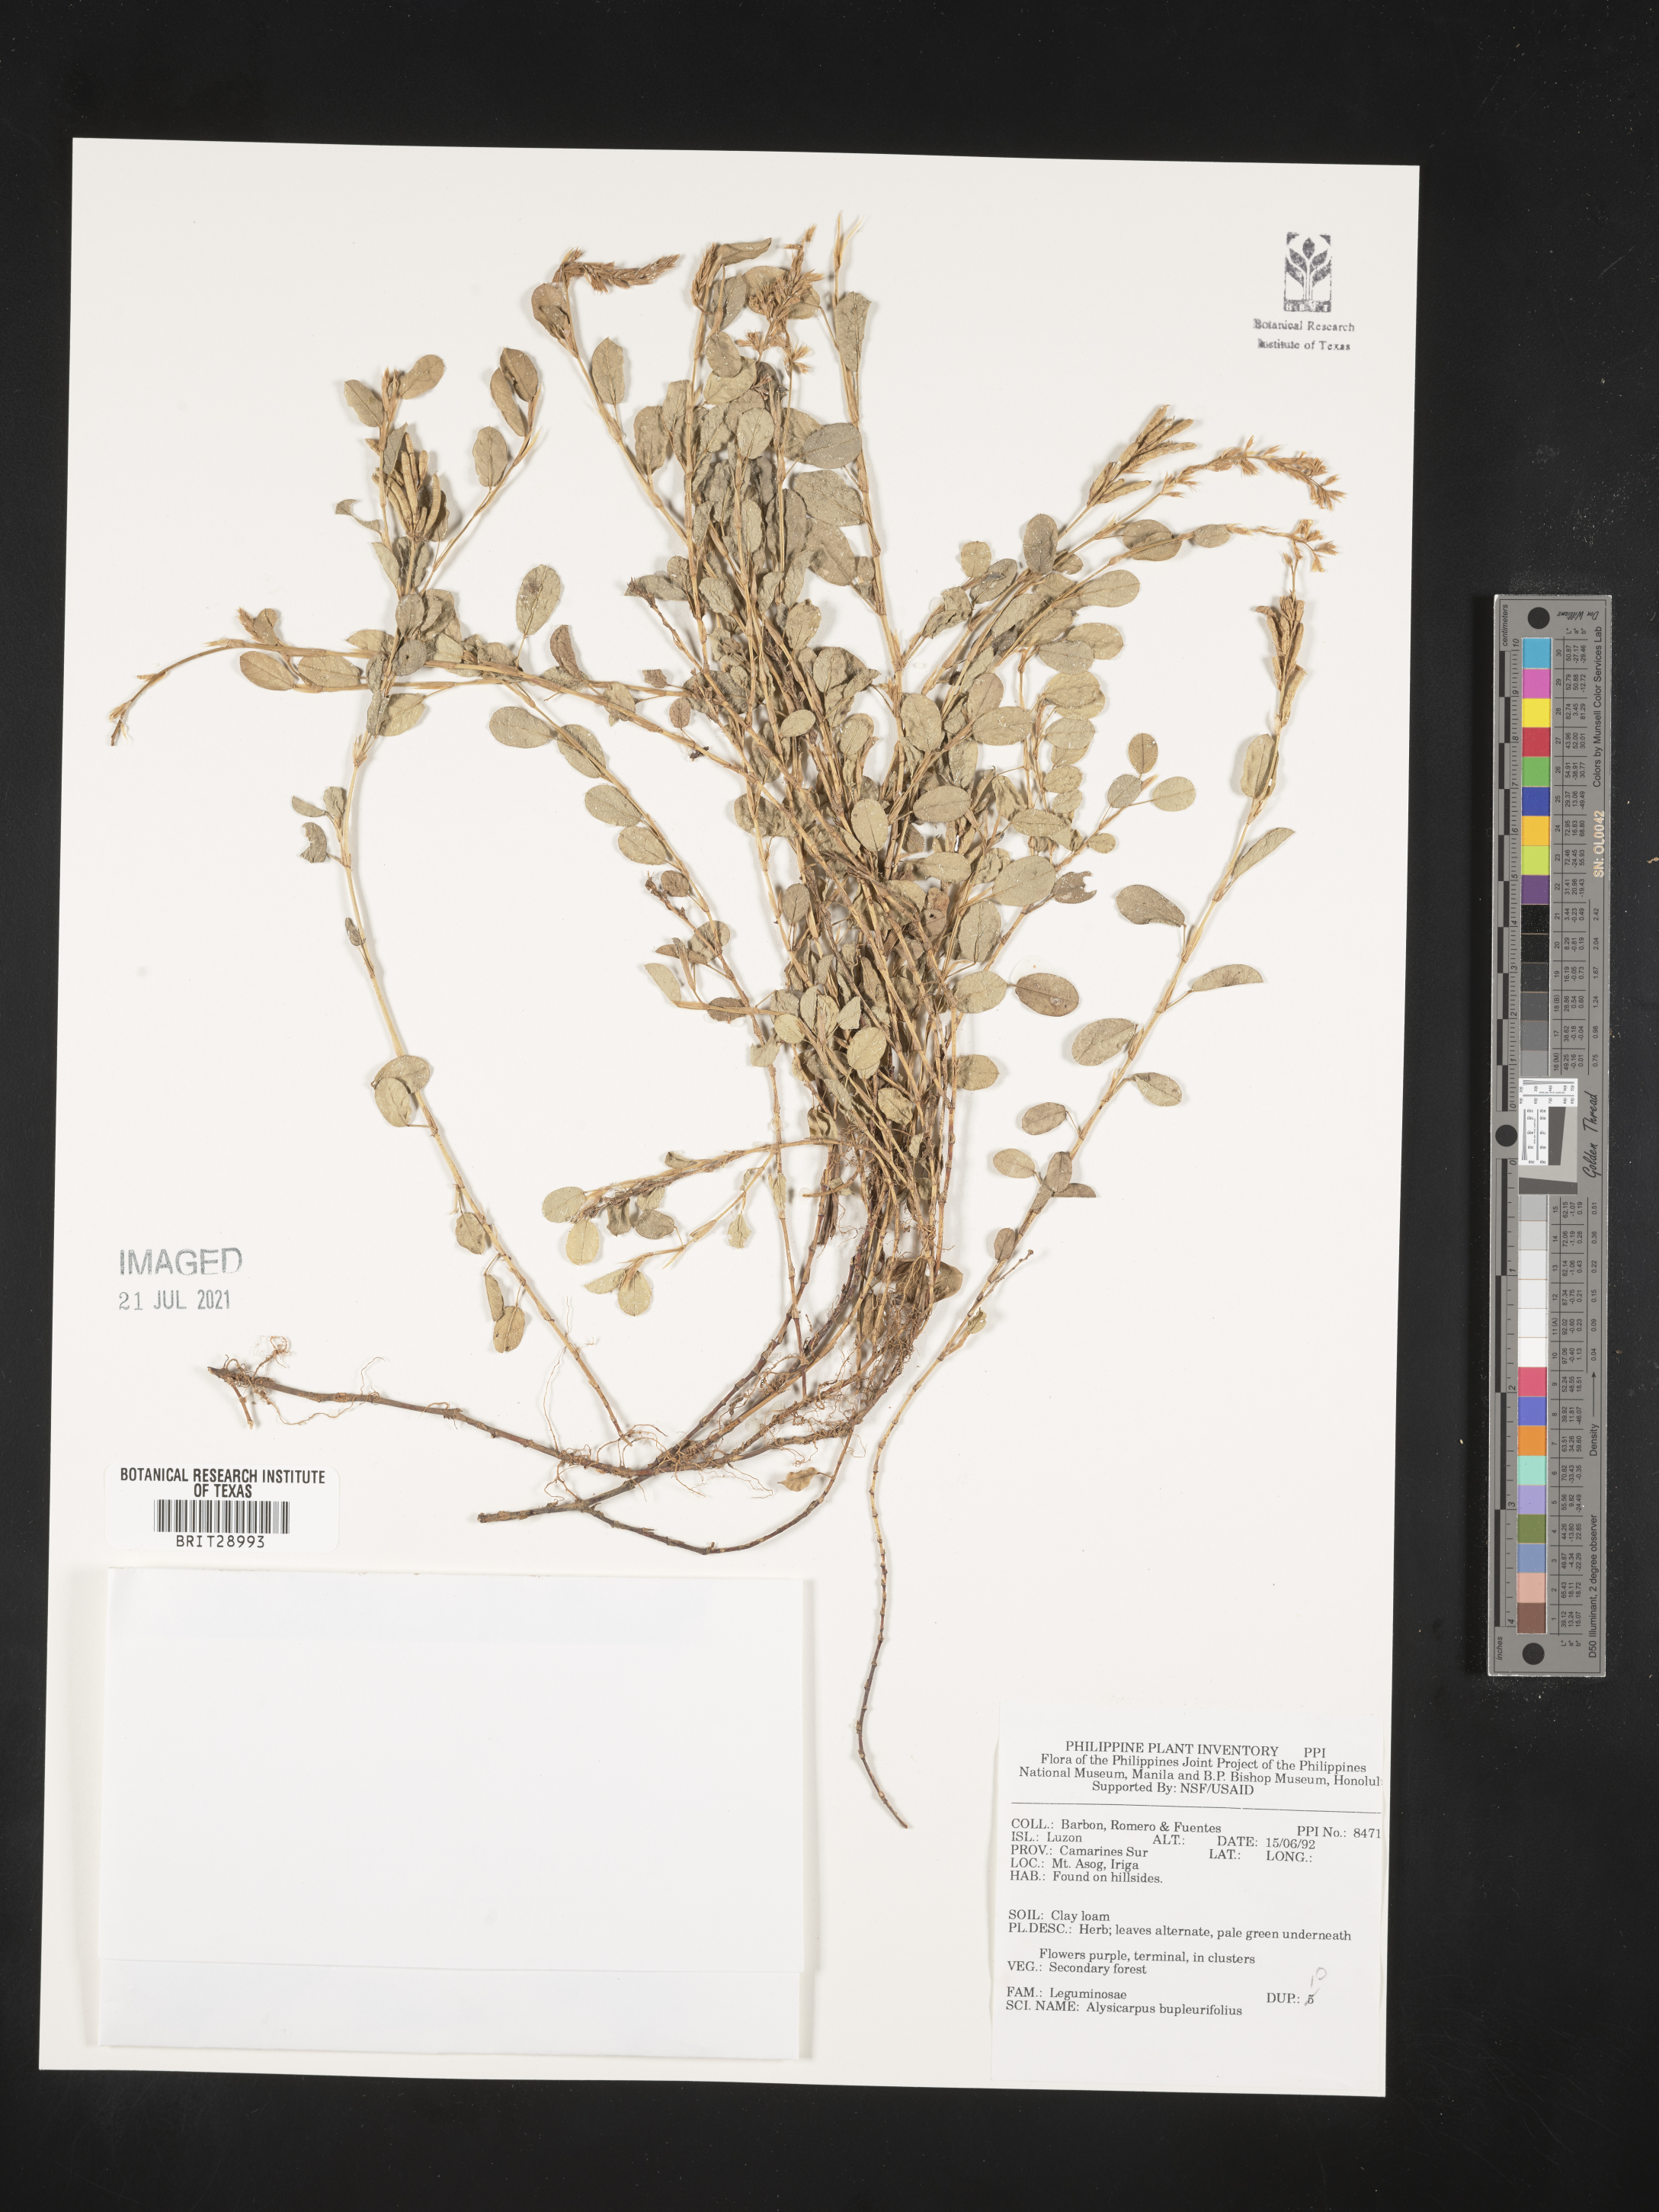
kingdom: Plantae
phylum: Tracheophyta
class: Magnoliopsida
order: Fabales
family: Fabaceae
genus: Alysicarpus
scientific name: Alysicarpus bupleurifolius
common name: Sweet alys
